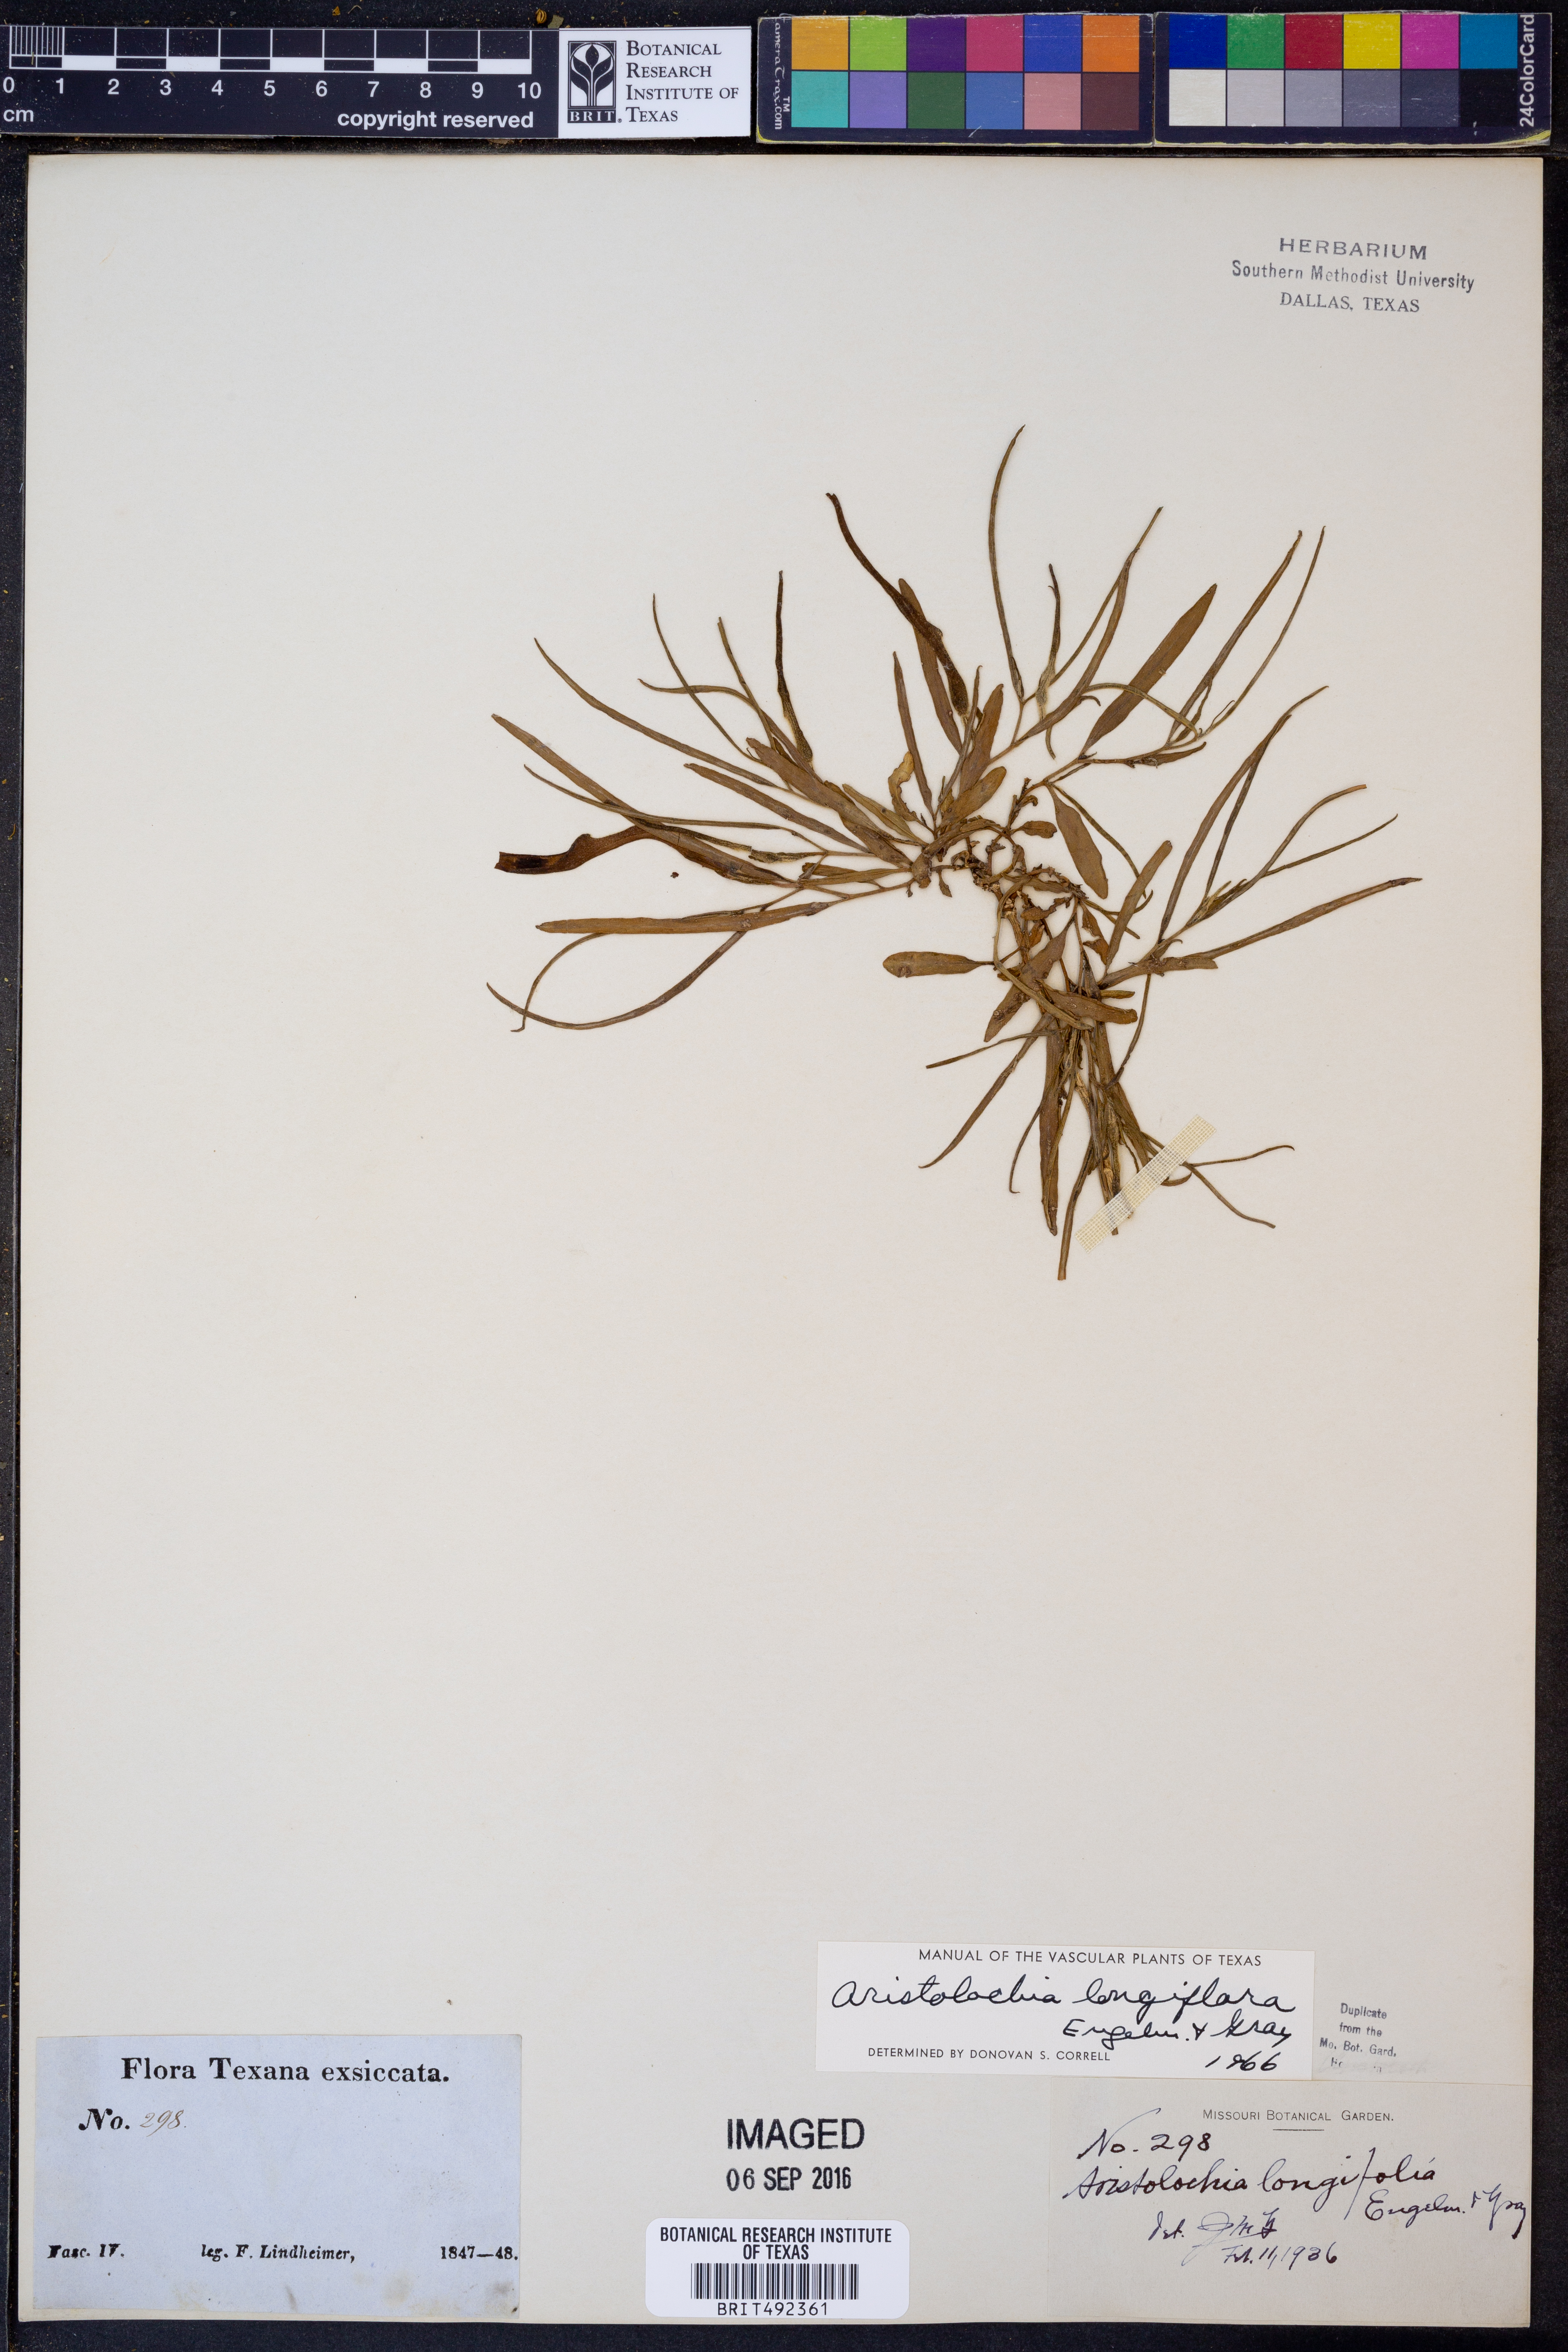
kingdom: Plantae
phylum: Tracheophyta
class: Magnoliopsida
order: Piperales
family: Aristolochiaceae
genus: Aristolochia
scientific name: Aristolochia erecta
